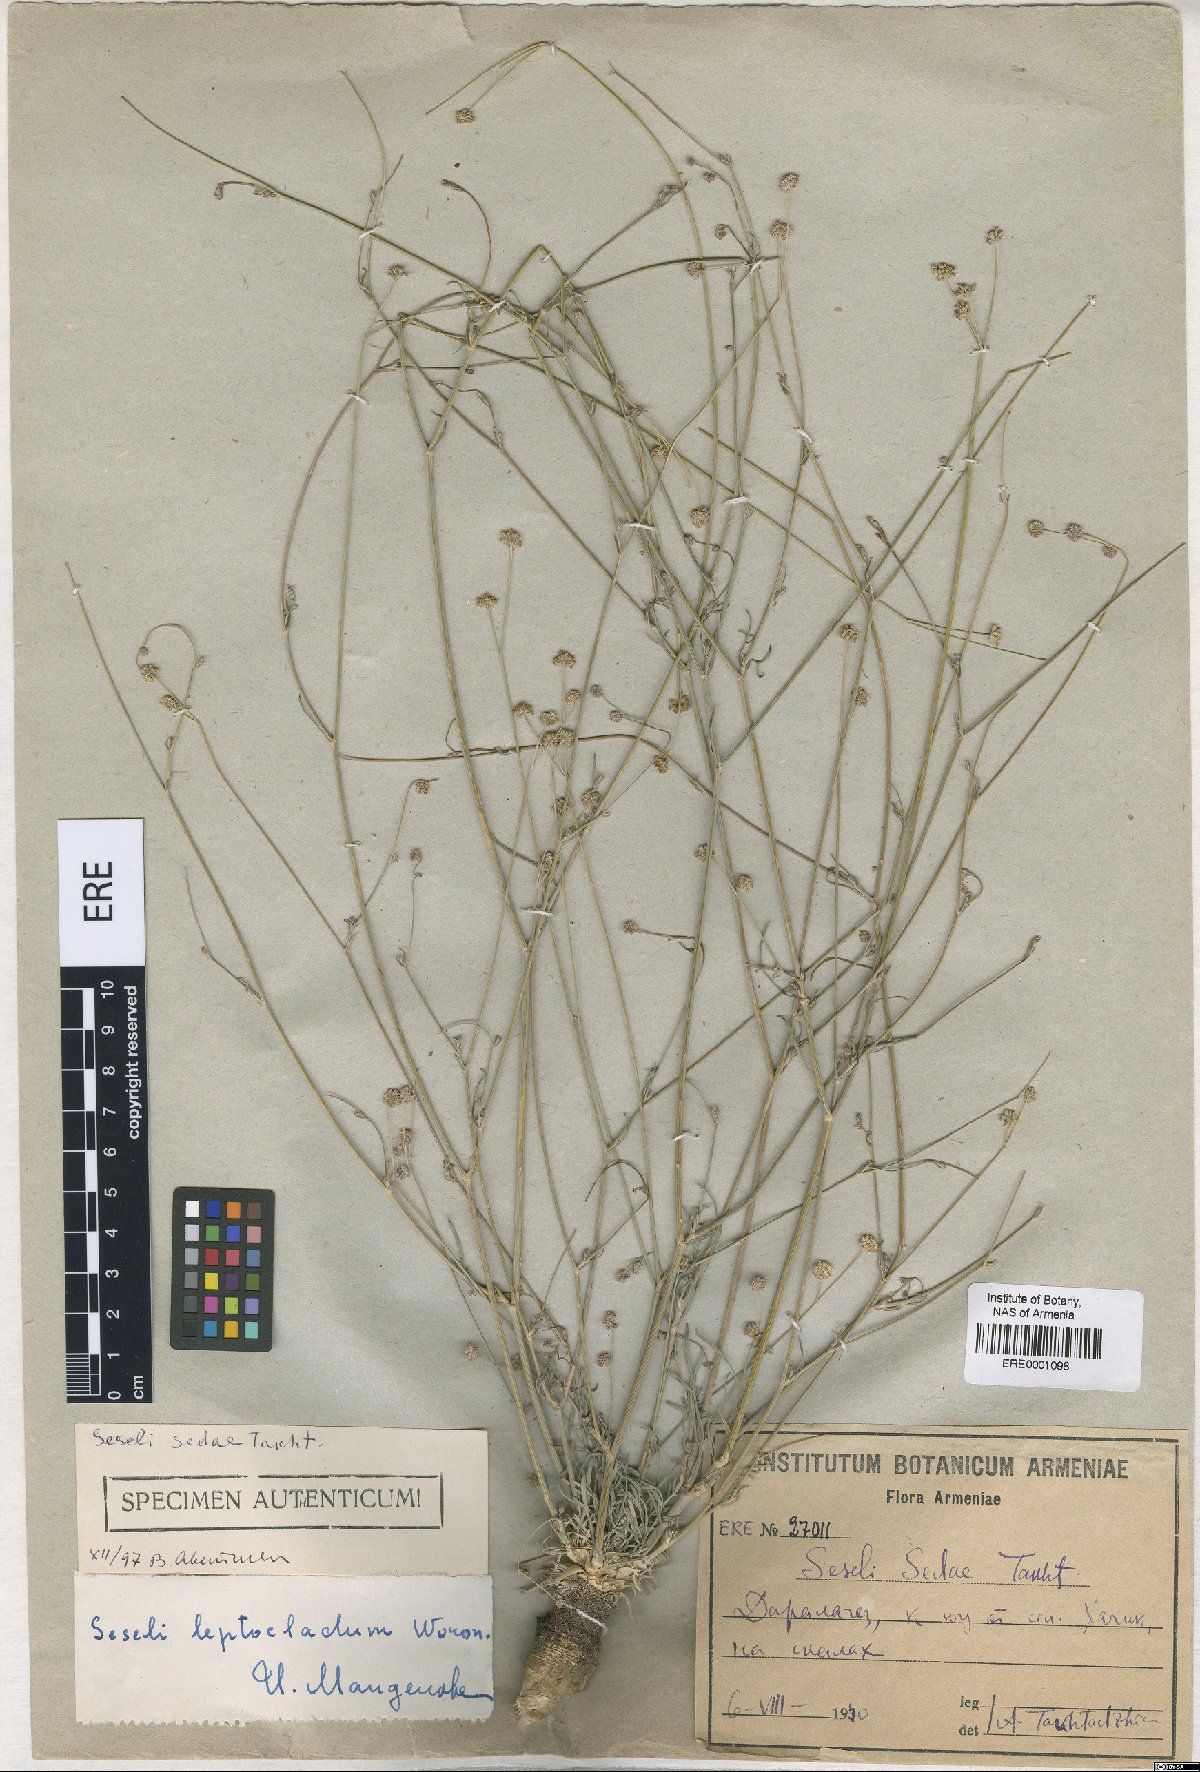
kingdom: Plantae
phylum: Tracheophyta
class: Magnoliopsida
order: Apiales
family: Apiaceae
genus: Seseli
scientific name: Seseli leptocladum
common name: Finely twiggy seseli
